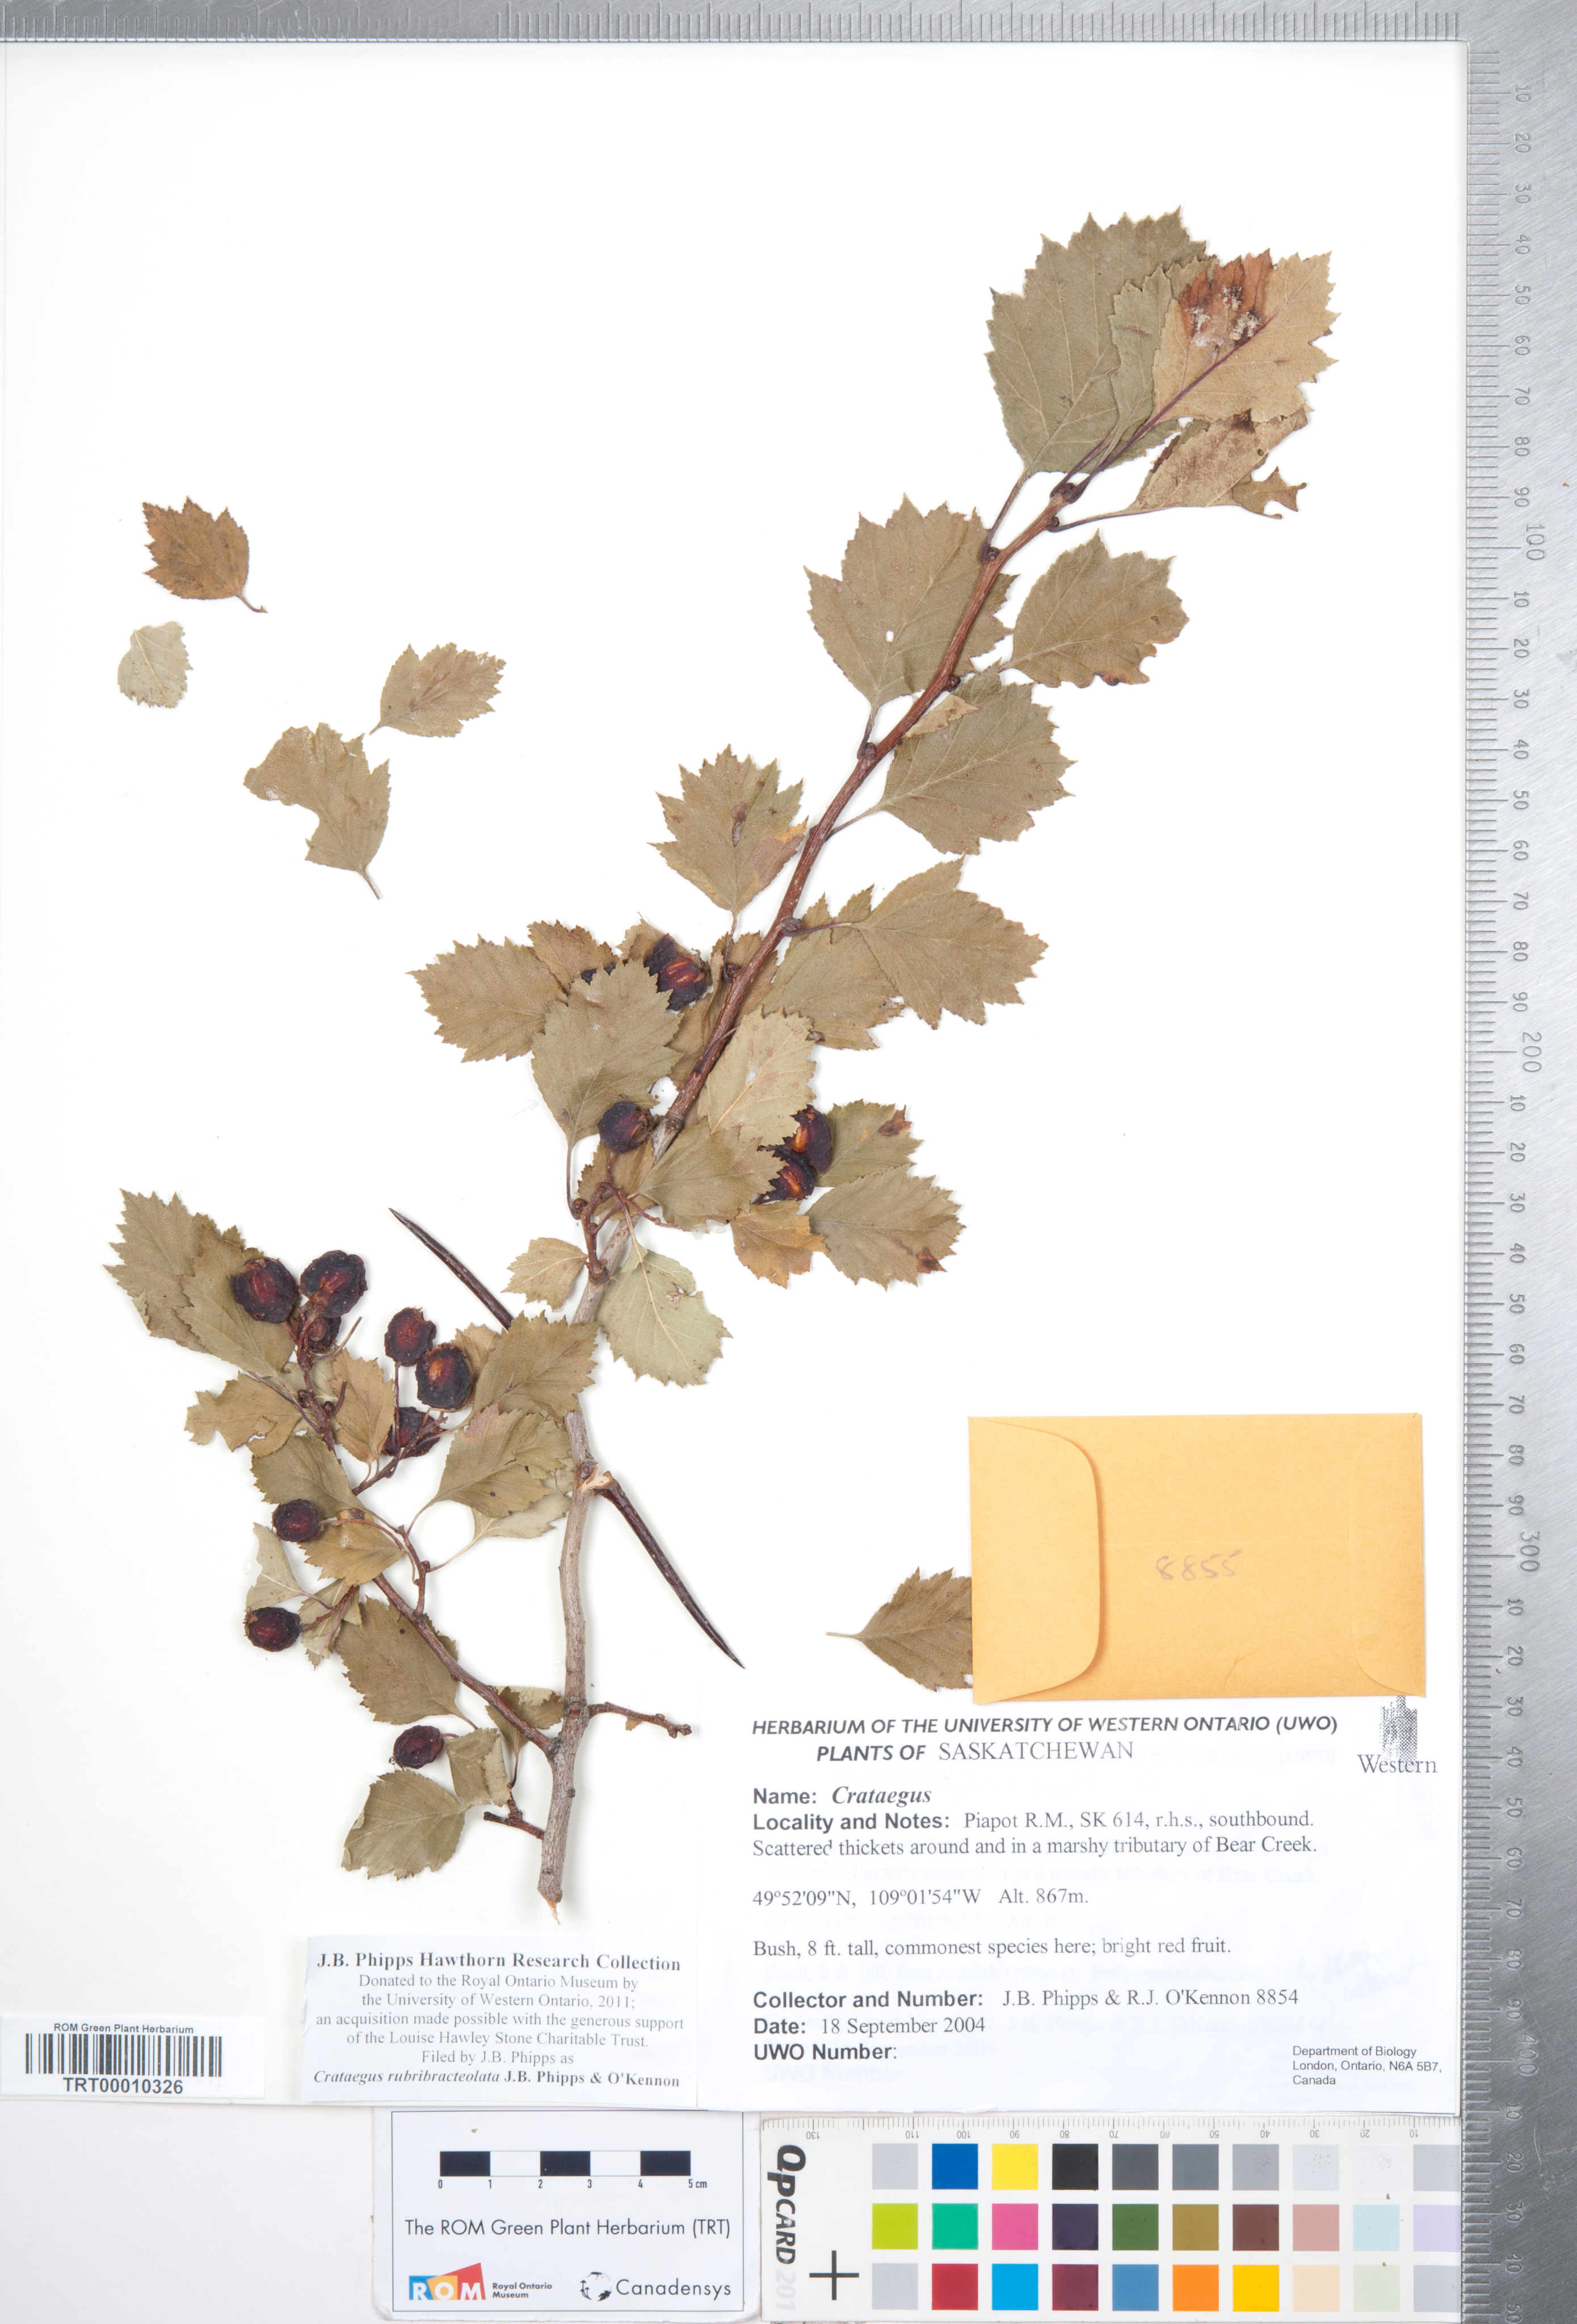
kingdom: Plantae
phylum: Tracheophyta
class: Magnoliopsida
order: Rosales
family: Rosaceae
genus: Crataegus
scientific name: Crataegus rubribracteolata
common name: Red bracteole hawthorn
